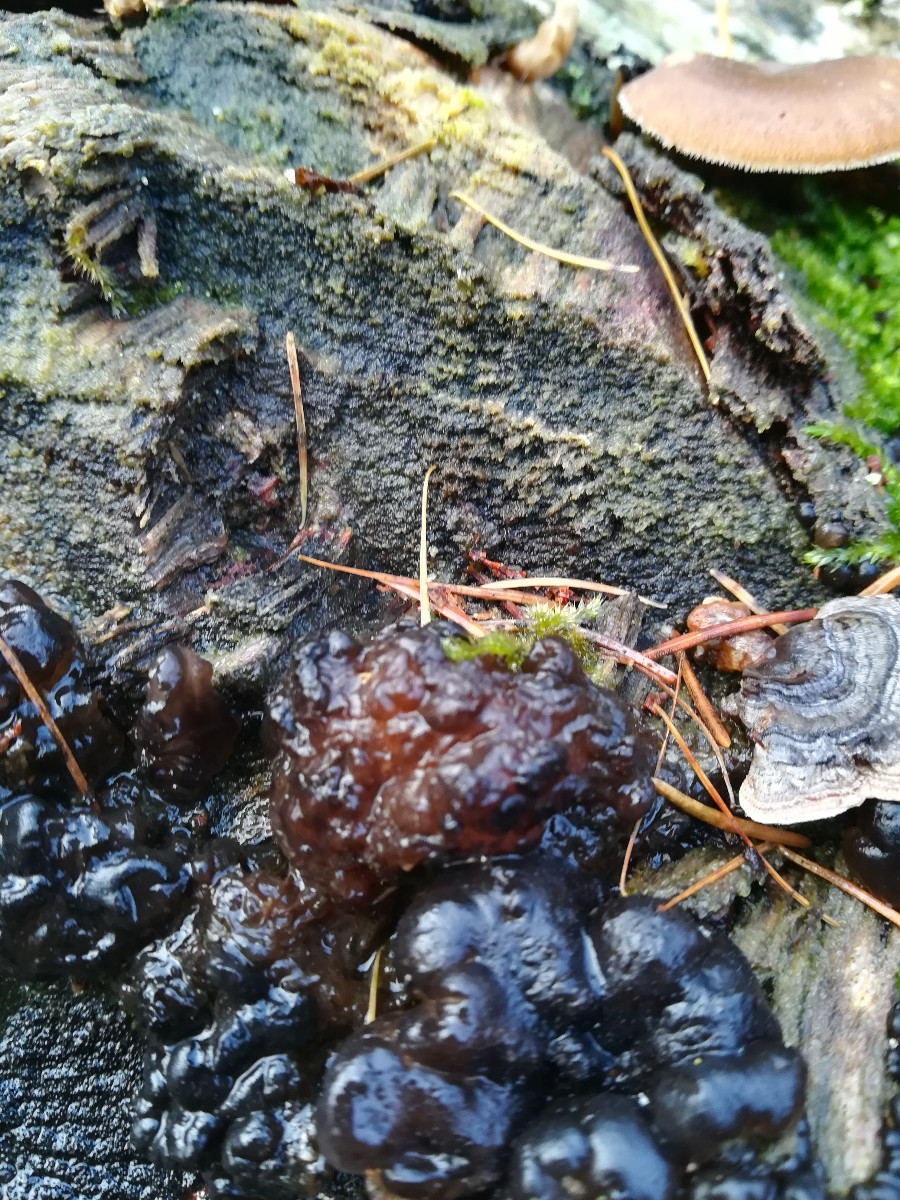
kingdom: Fungi
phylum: Basidiomycota
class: Agaricomycetes
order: Auriculariales
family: Auriculariaceae
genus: Exidia
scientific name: Exidia nigricans
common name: almindelig bævretop
